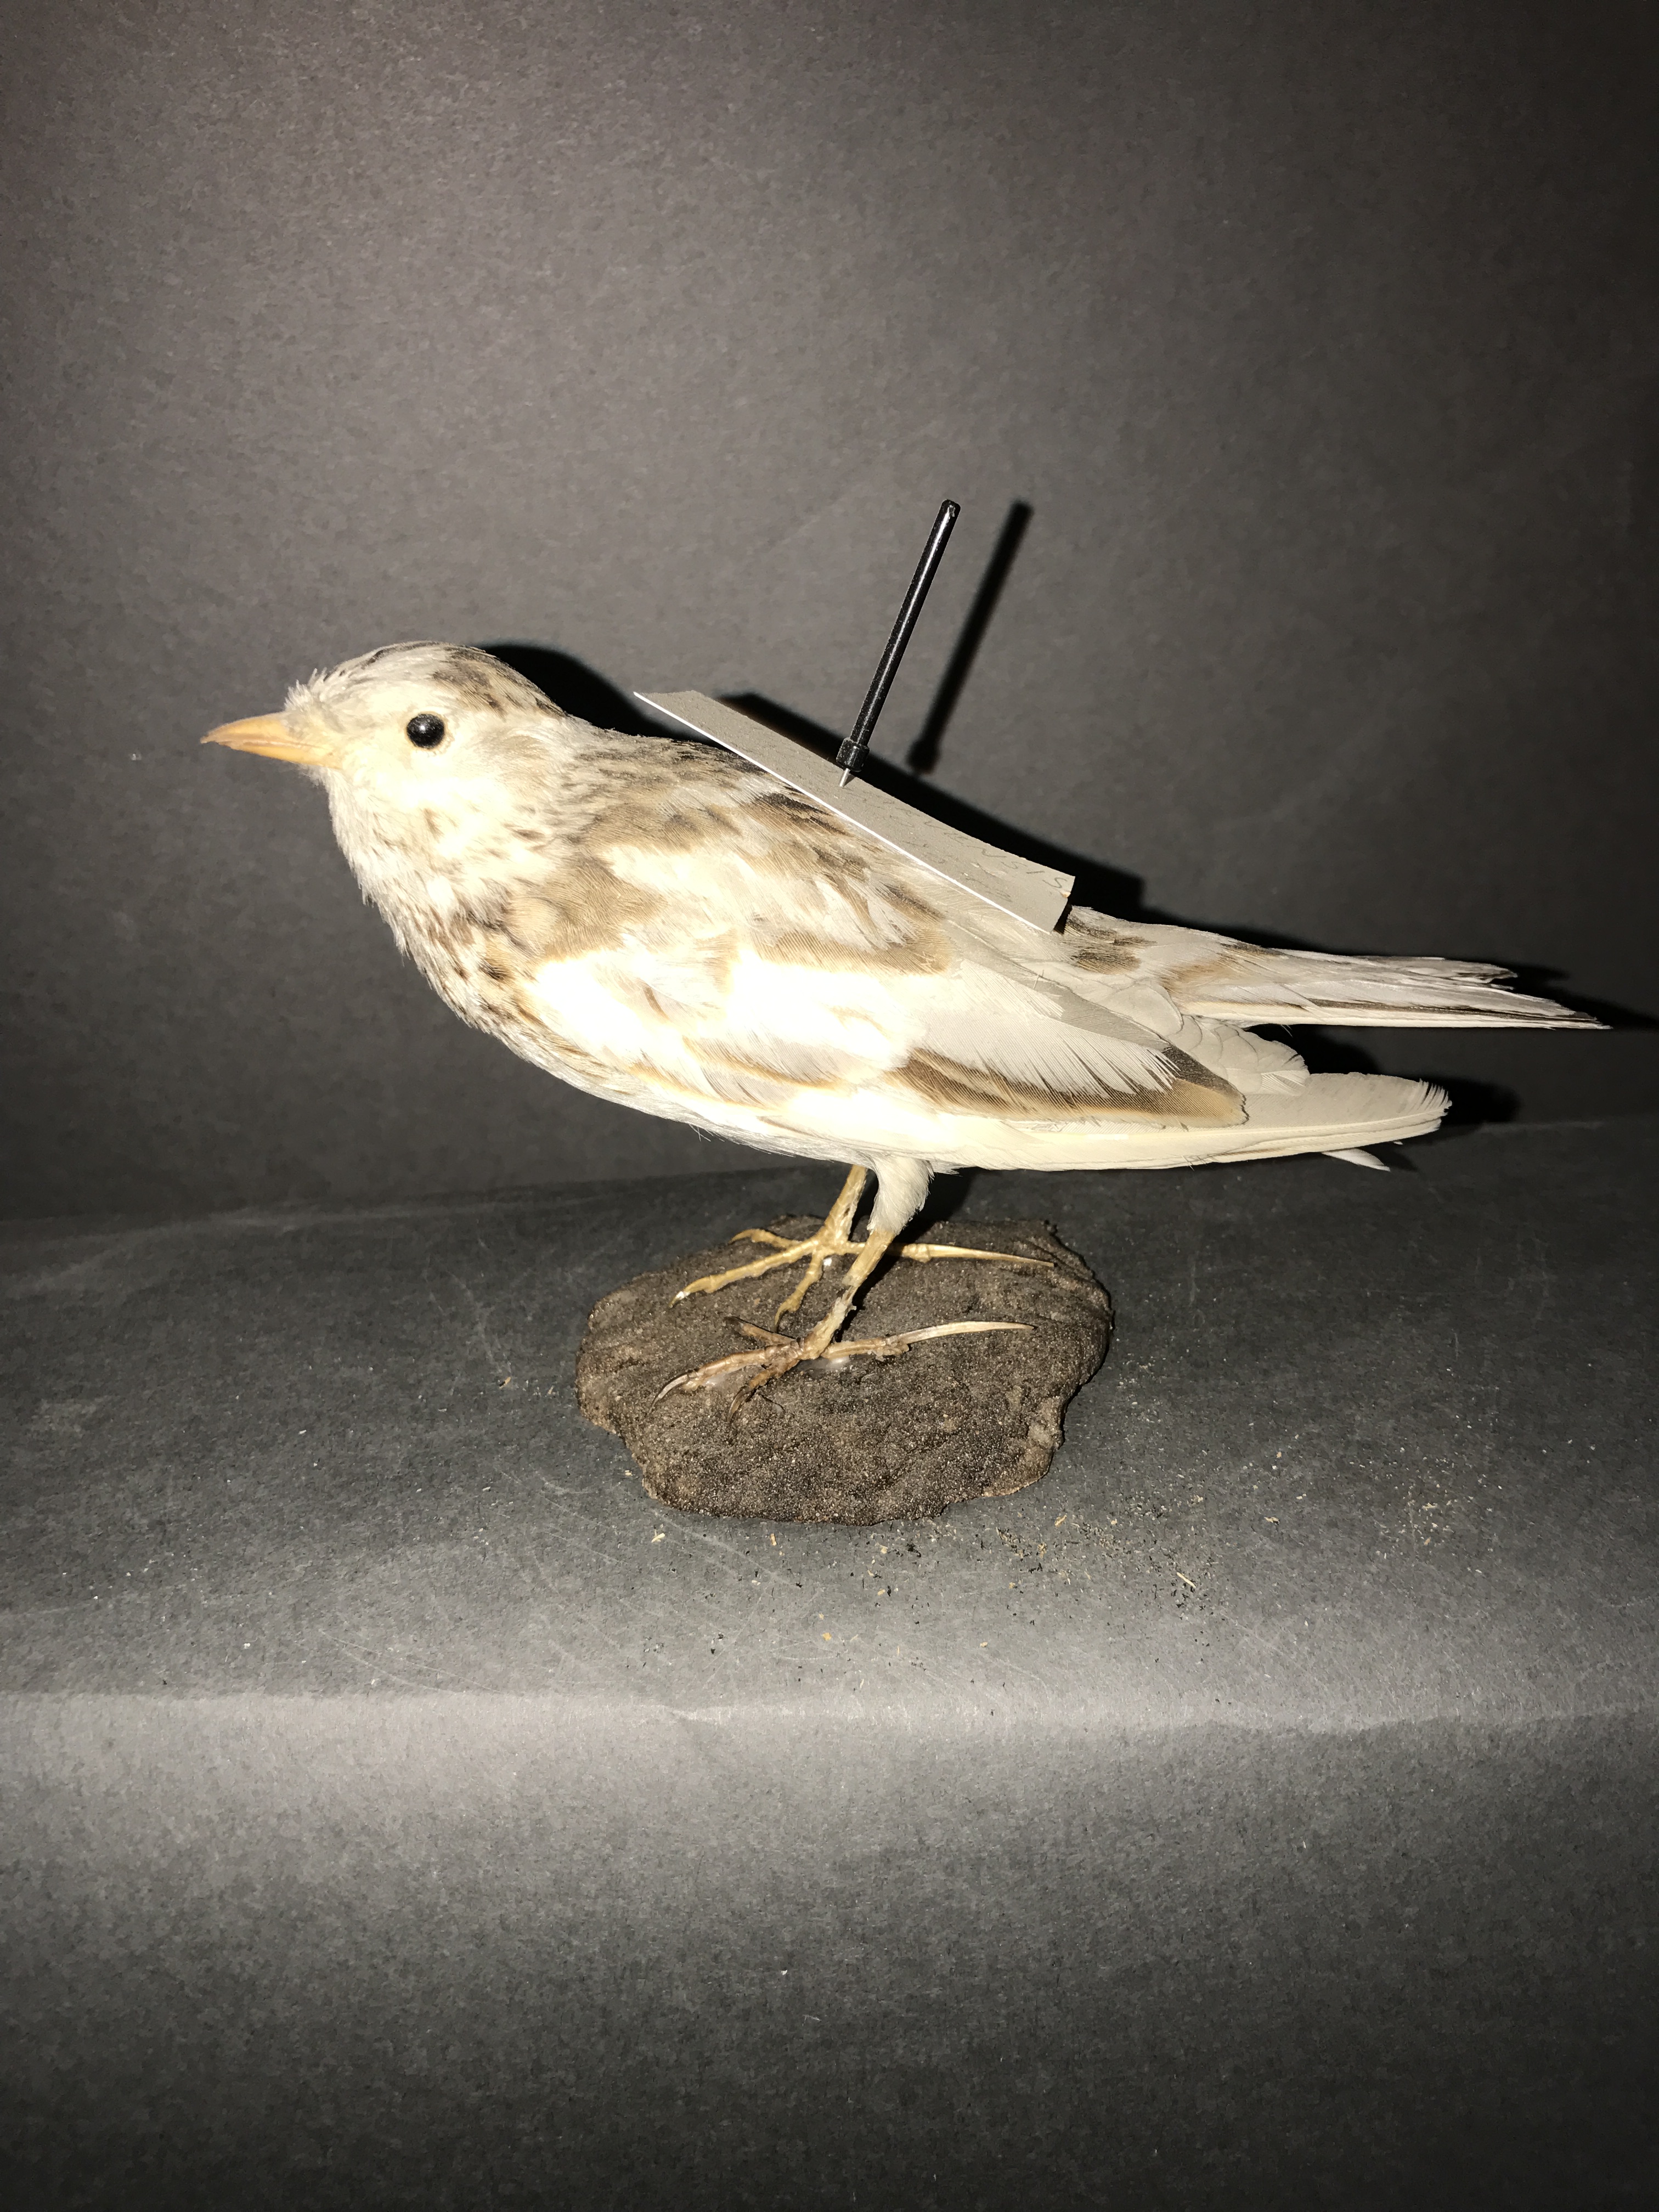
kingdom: Animalia
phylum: Chordata
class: Aves
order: Passeriformes
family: Alaudidae
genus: Alauda
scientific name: Alauda arvensis
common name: Eurasian skylark
